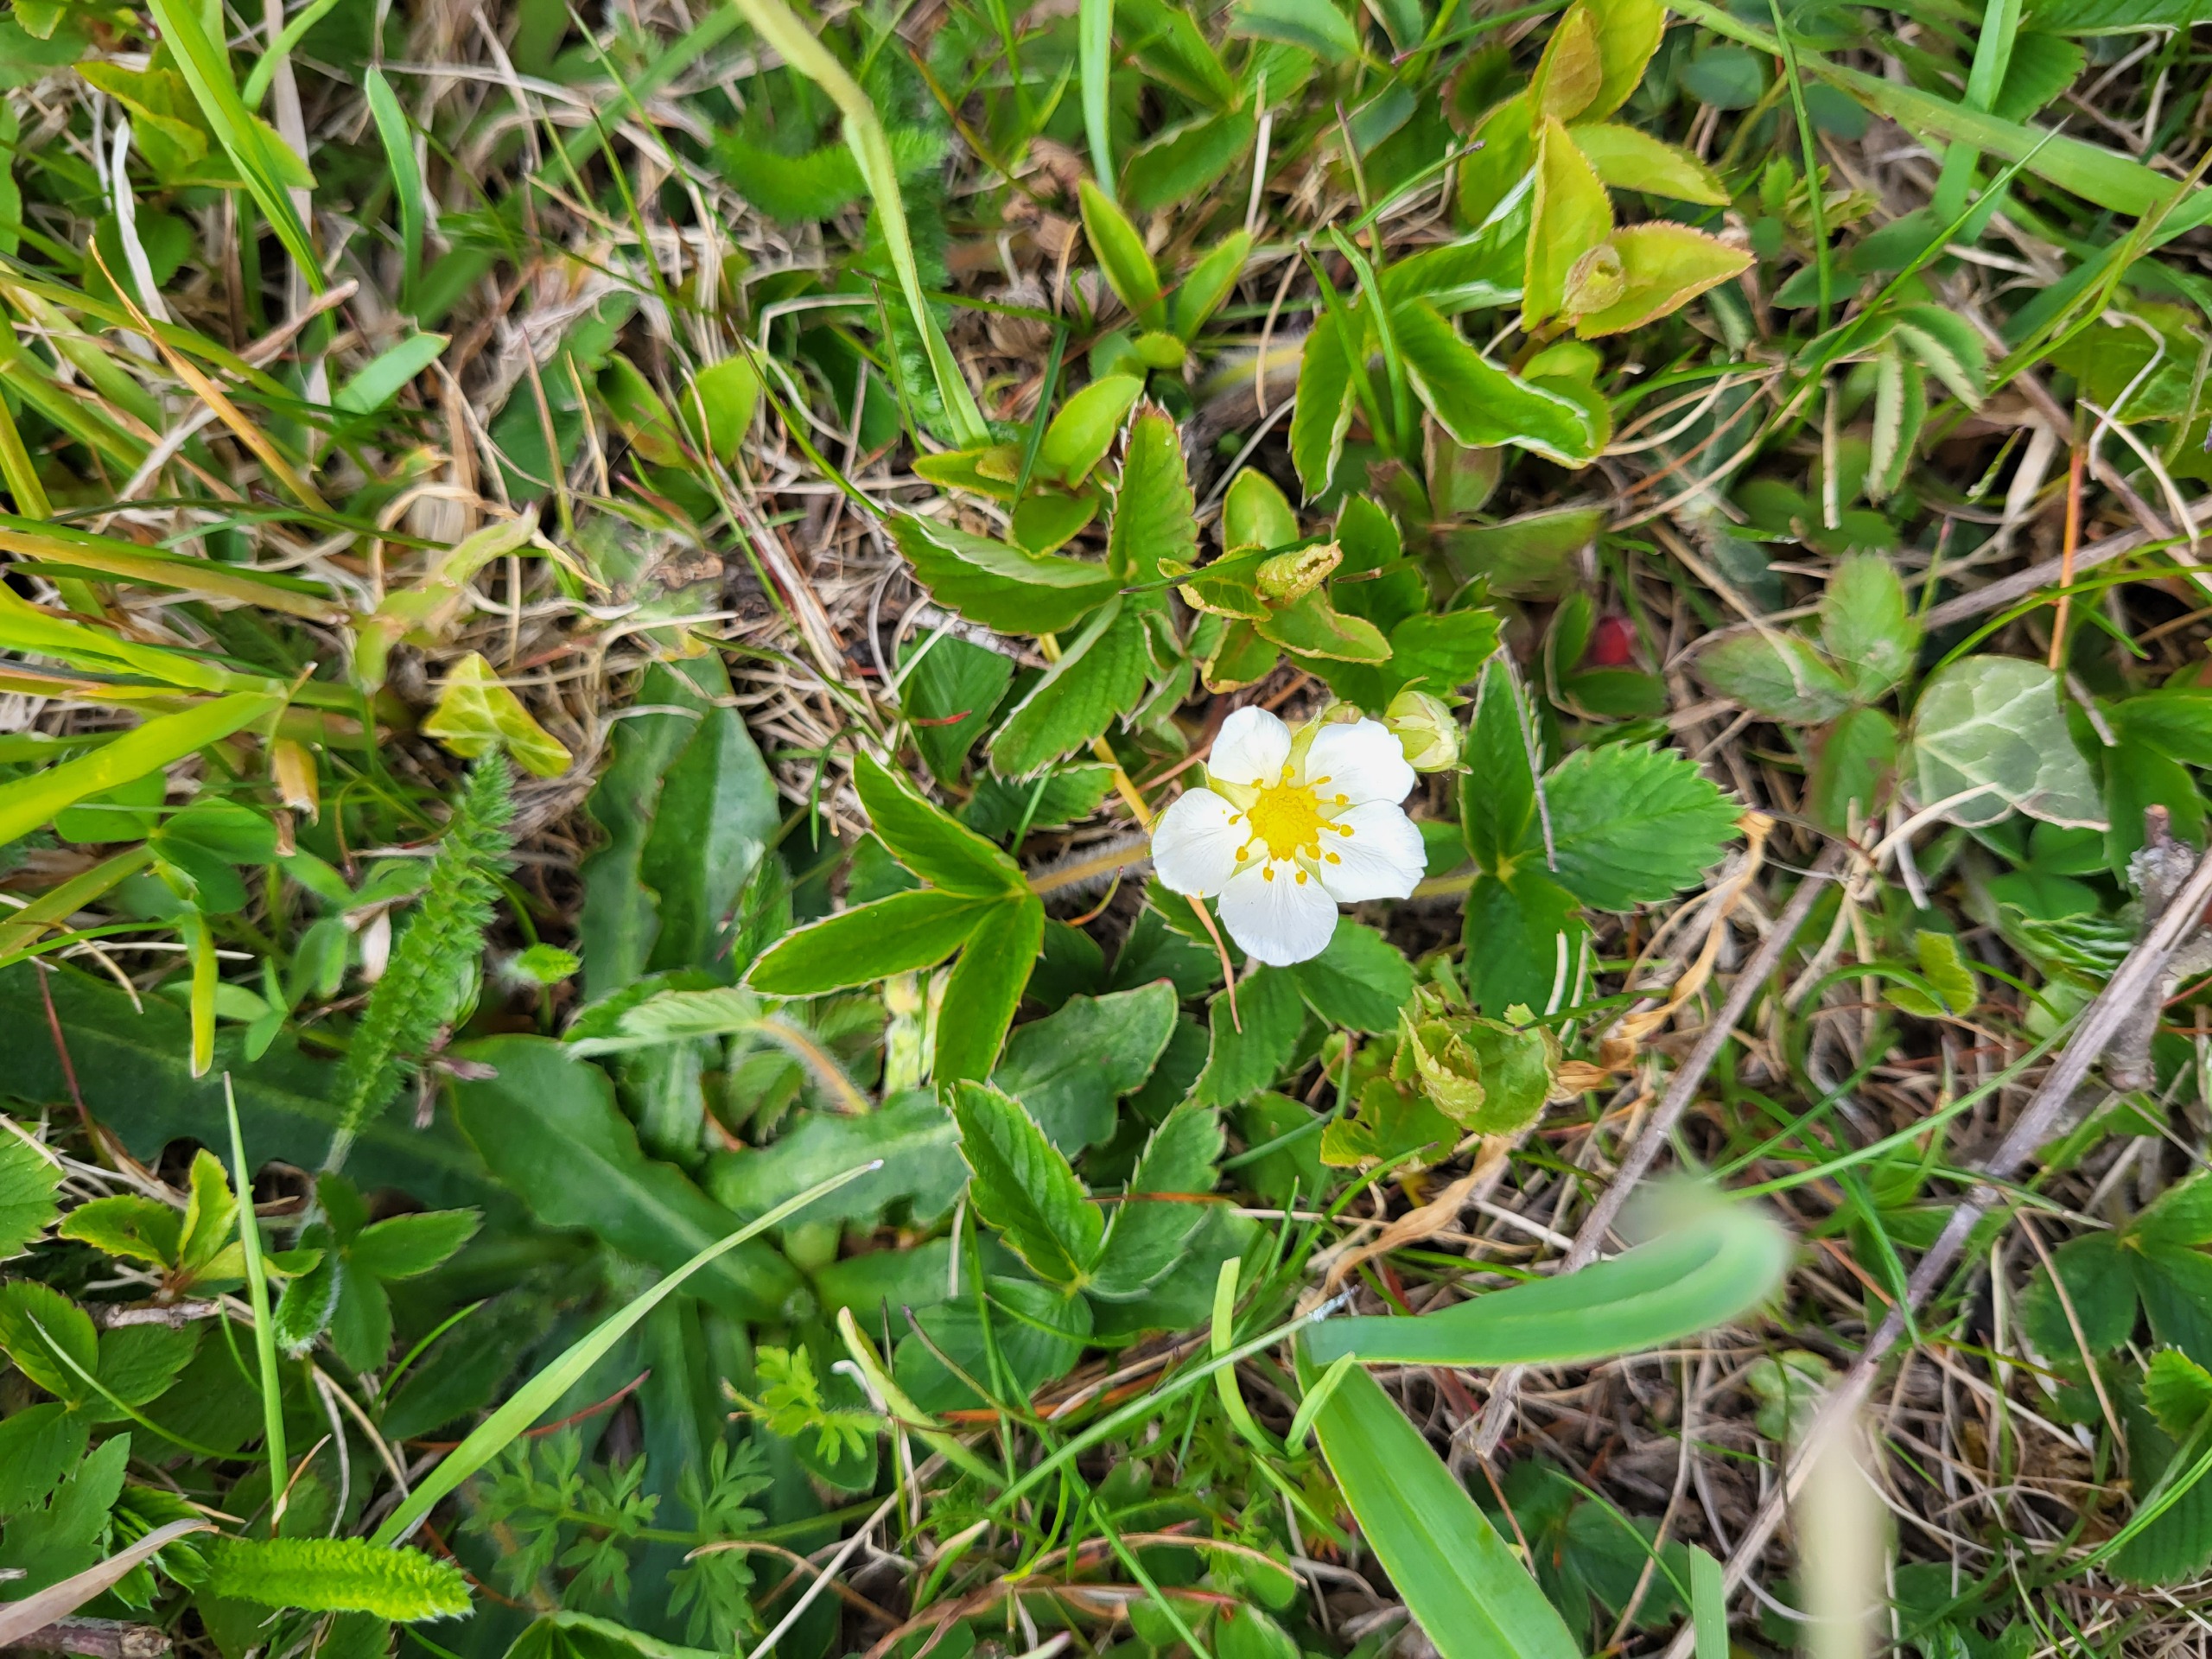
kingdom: Plantae
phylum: Tracheophyta
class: Magnoliopsida
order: Rosales
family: Rosaceae
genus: Fragaria
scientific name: Fragaria vesca
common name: Skov-jordbær
